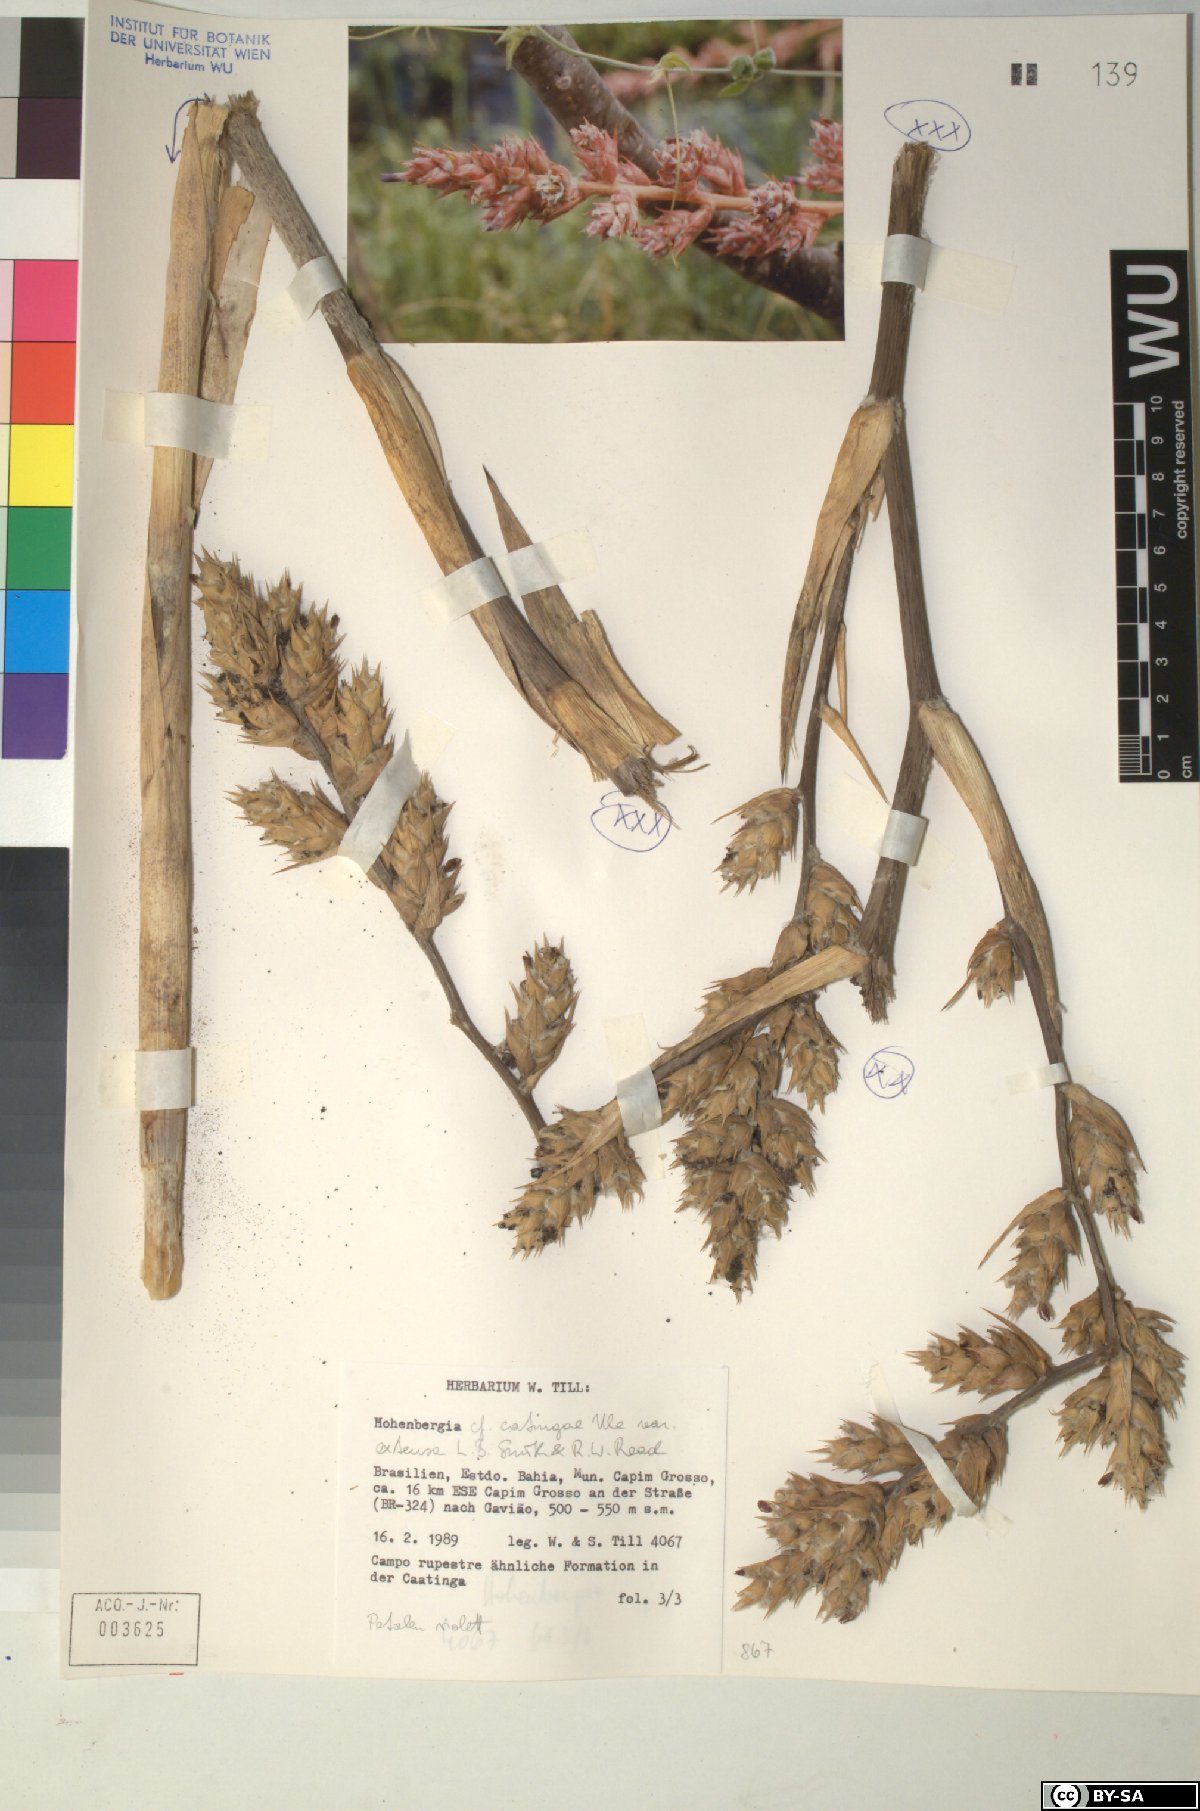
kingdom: Plantae
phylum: Tracheophyta
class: Liliopsida
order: Poales
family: Bromeliaceae
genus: Hohenbergia
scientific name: Hohenbergia
